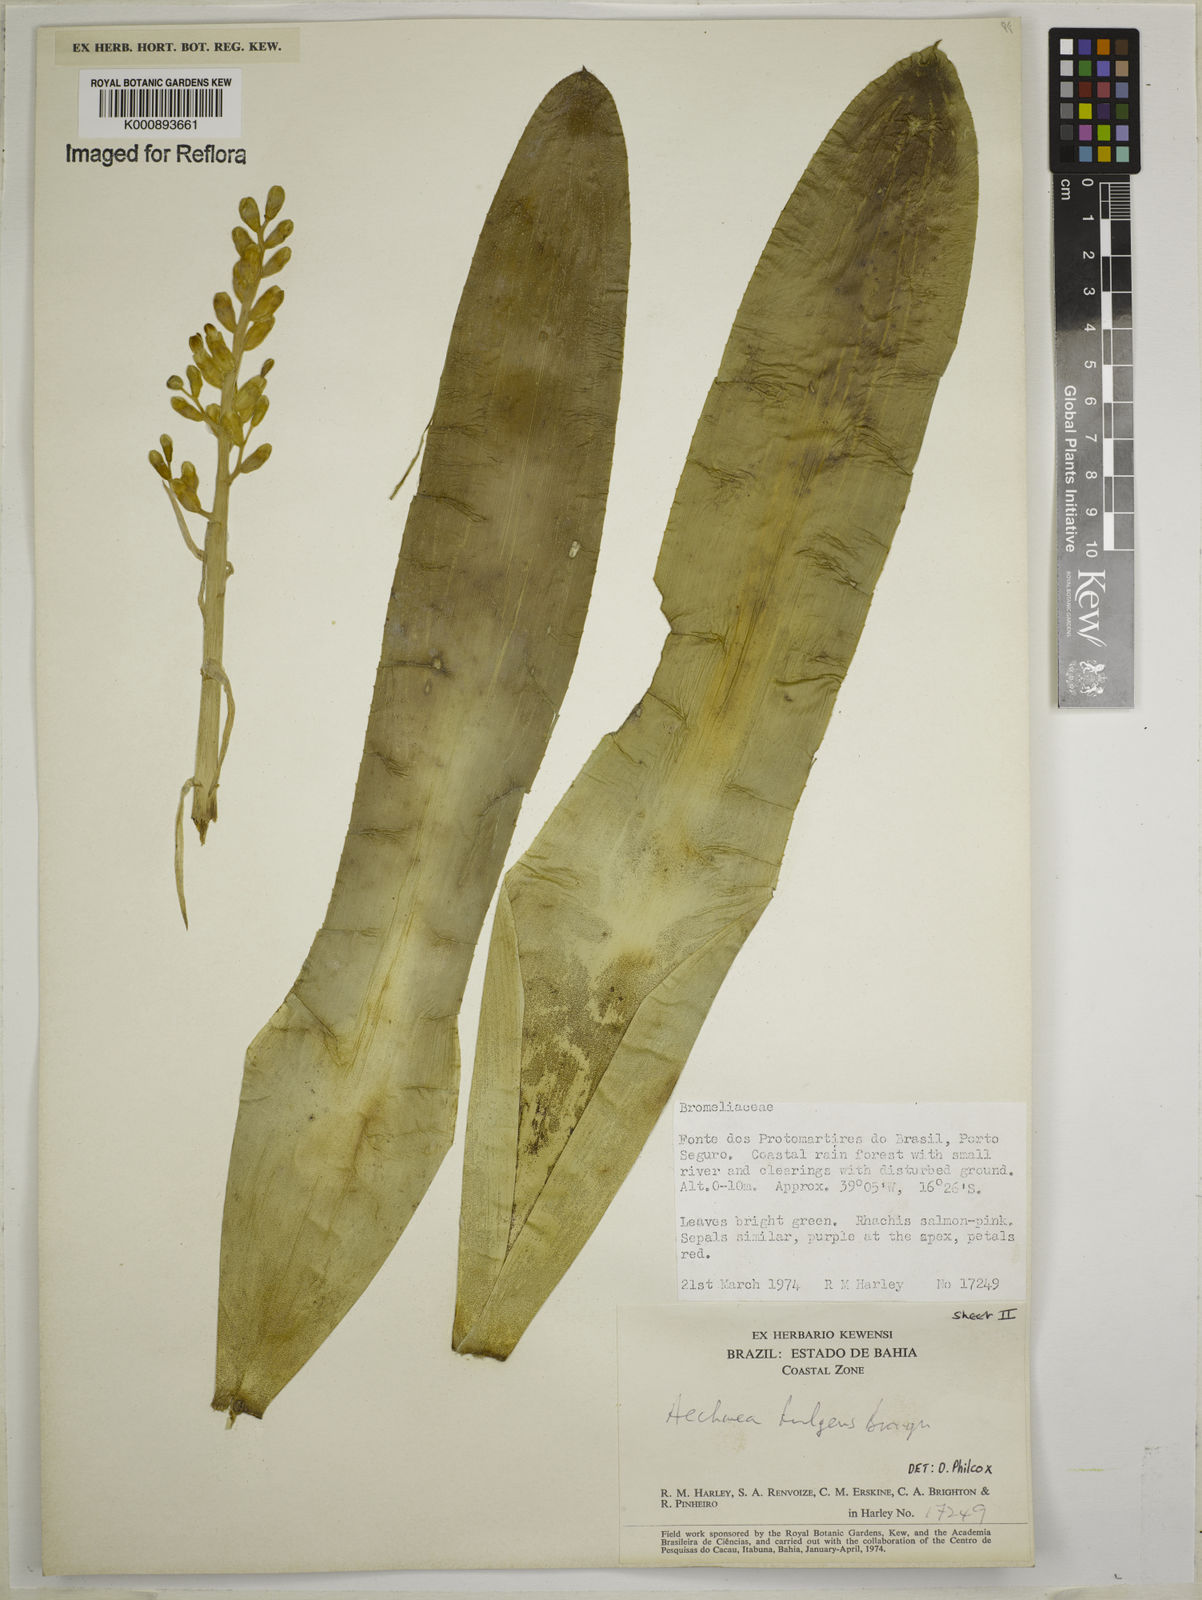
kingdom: Plantae
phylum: Tracheophyta
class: Liliopsida
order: Poales
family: Bromeliaceae
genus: Aechmea
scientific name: Aechmea fulgens
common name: Coralberry
